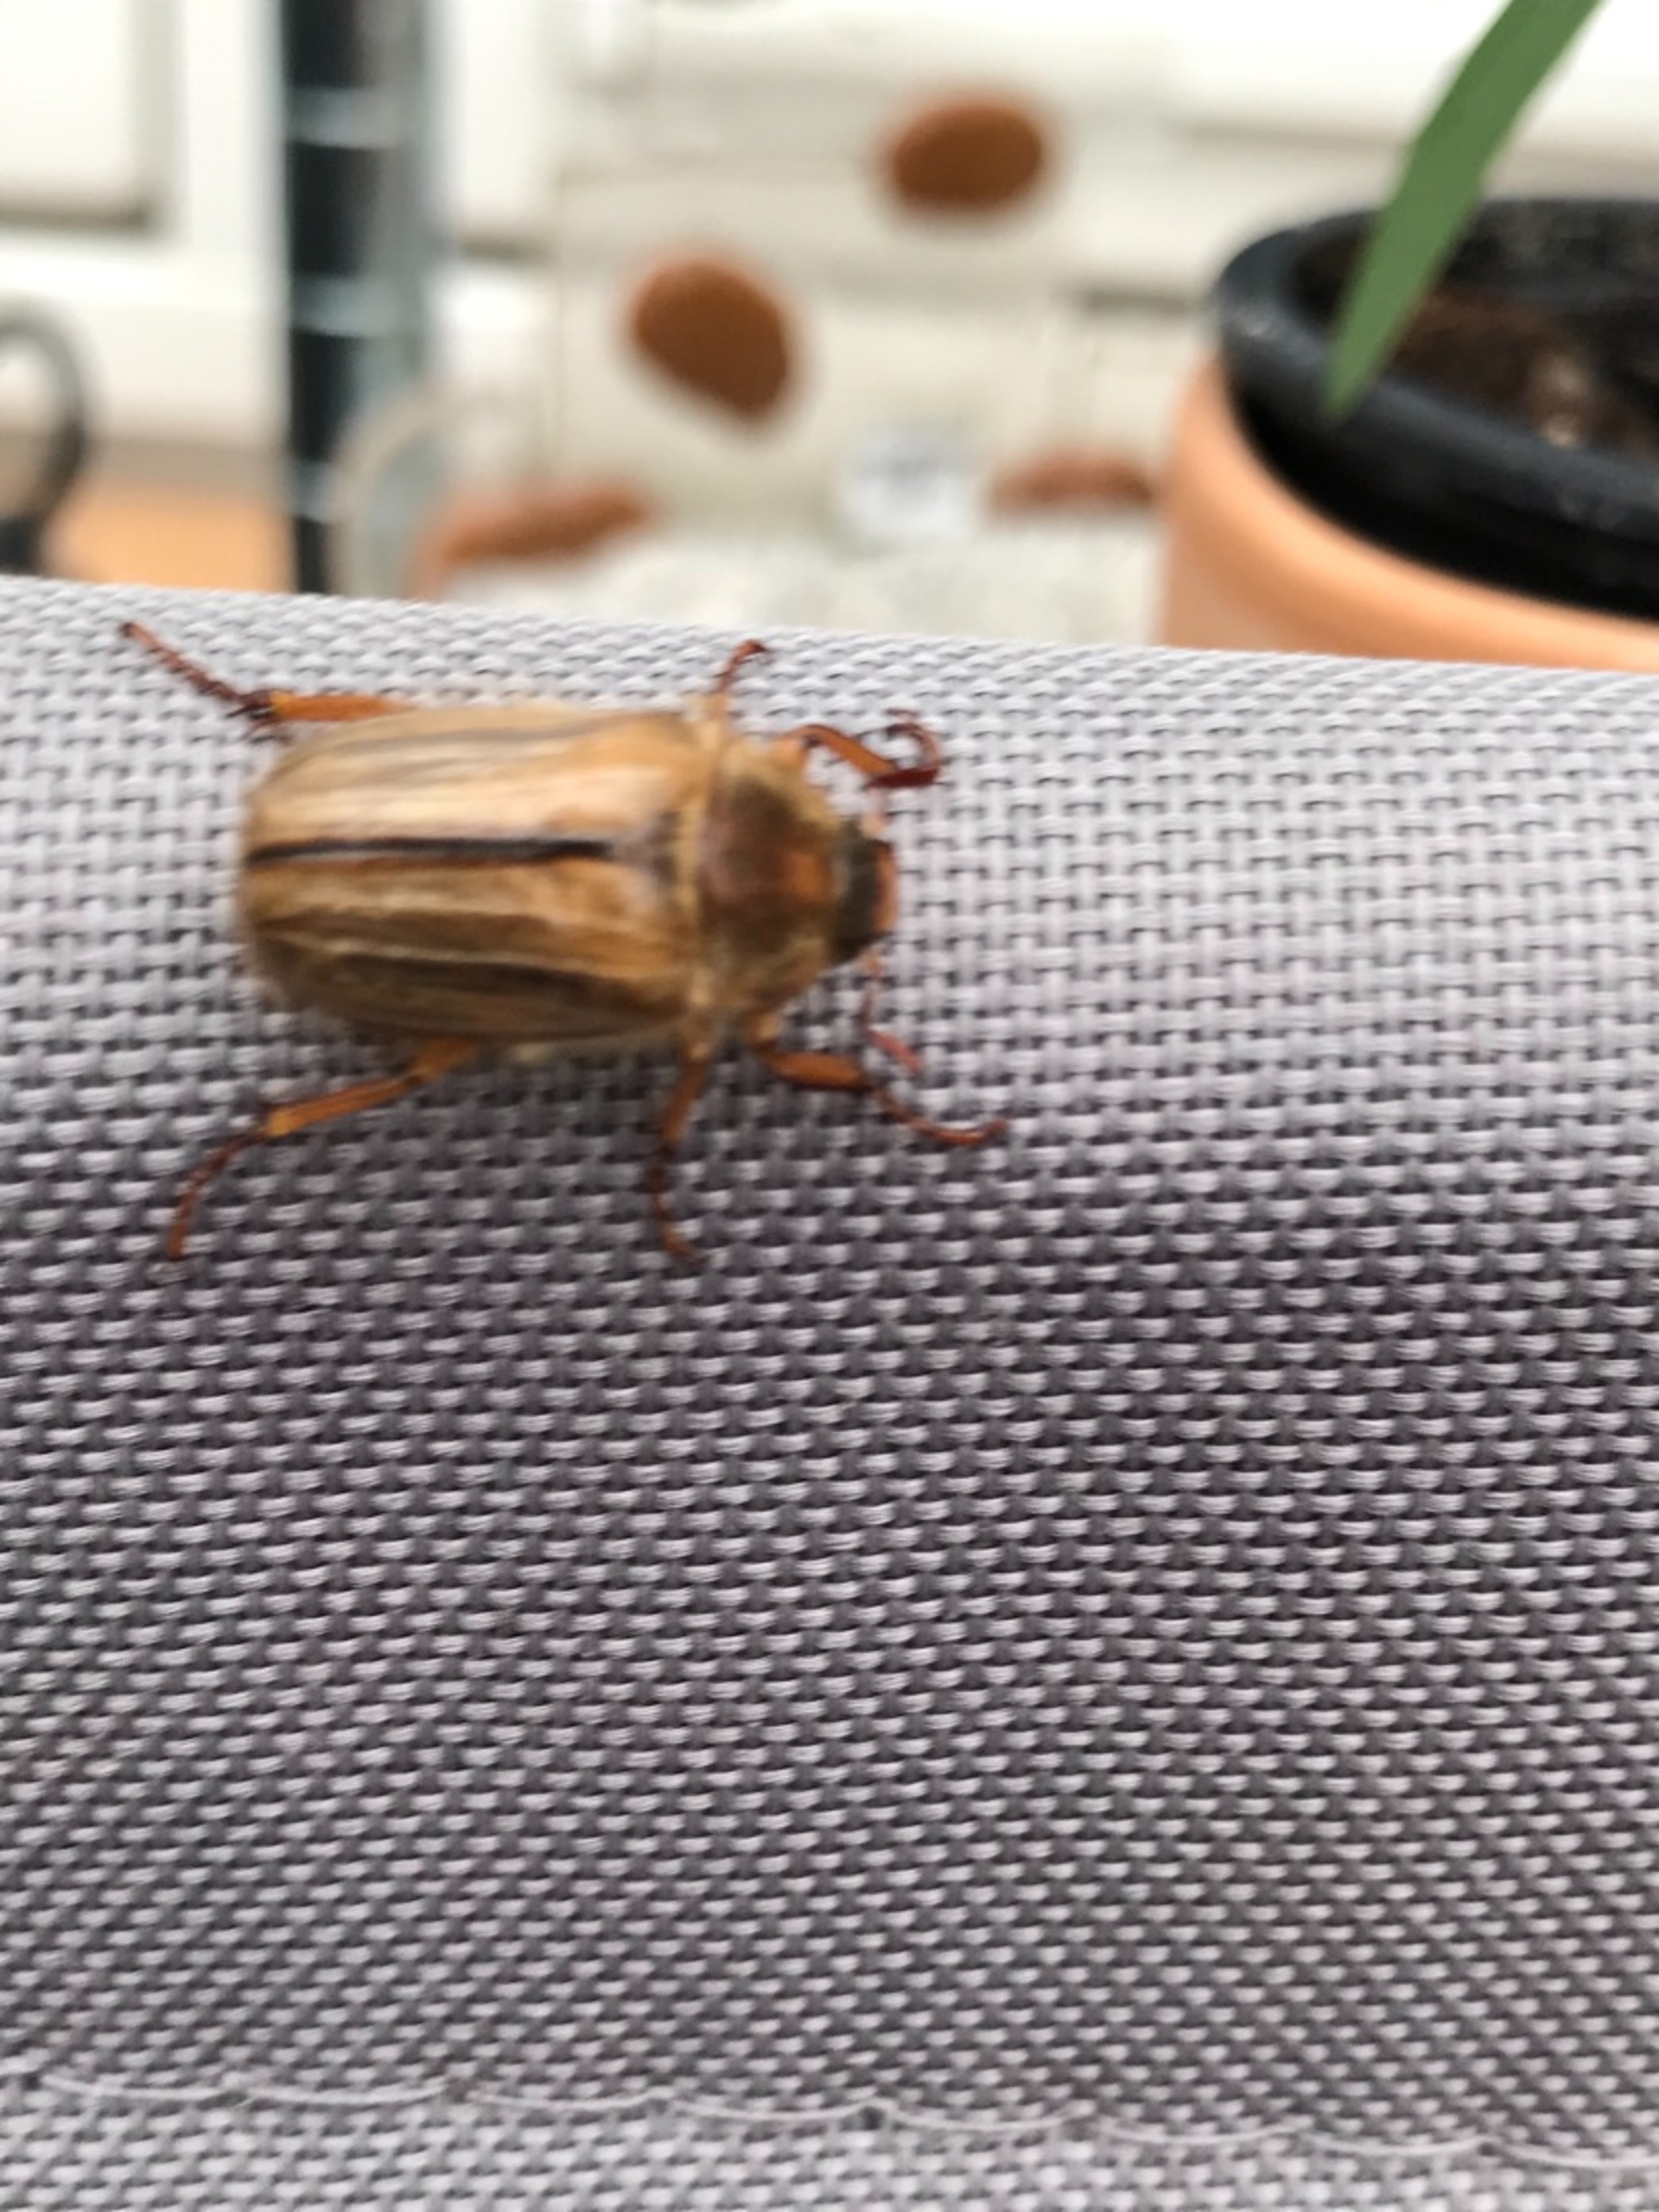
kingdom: Animalia
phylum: Arthropoda
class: Insecta
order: Coleoptera
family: Scarabaeidae
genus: Amphimallon
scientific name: Amphimallon solstitiale
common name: Sankthansoldenborre
